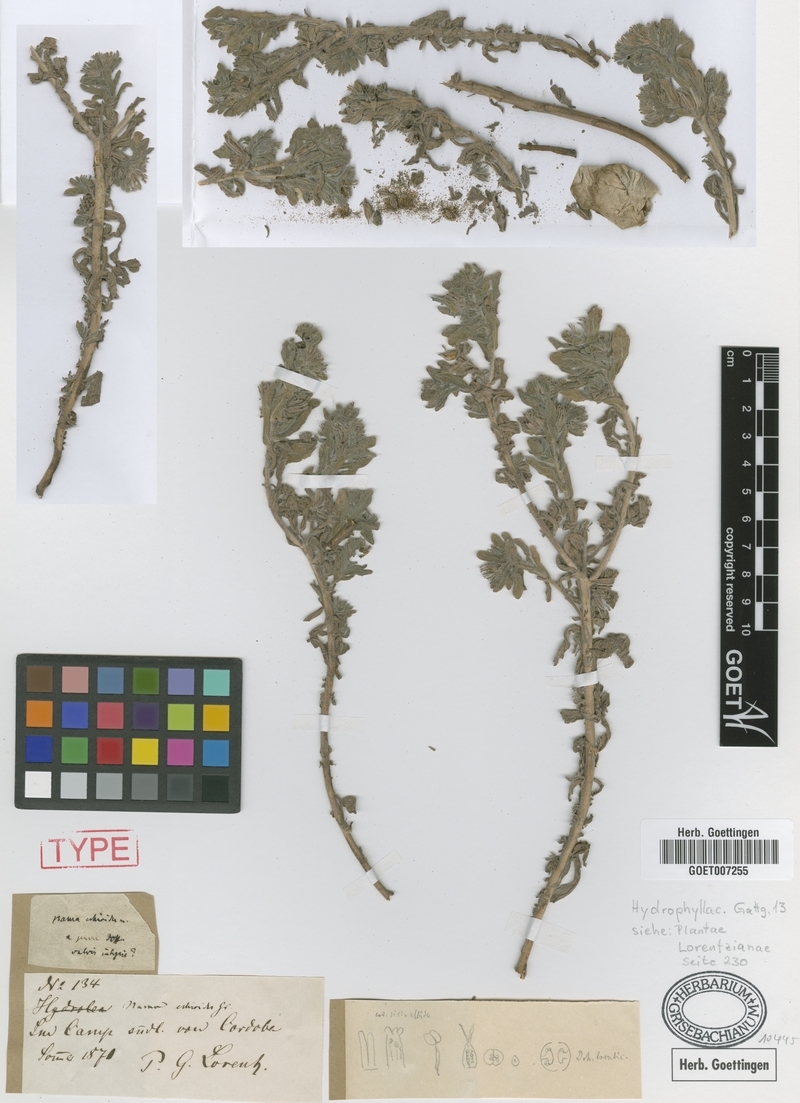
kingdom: Plantae
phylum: Tracheophyta
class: Magnoliopsida
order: Boraginales
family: Namaceae
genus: Nama
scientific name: Nama undulata
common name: Whitewhisker fiddleleaf
